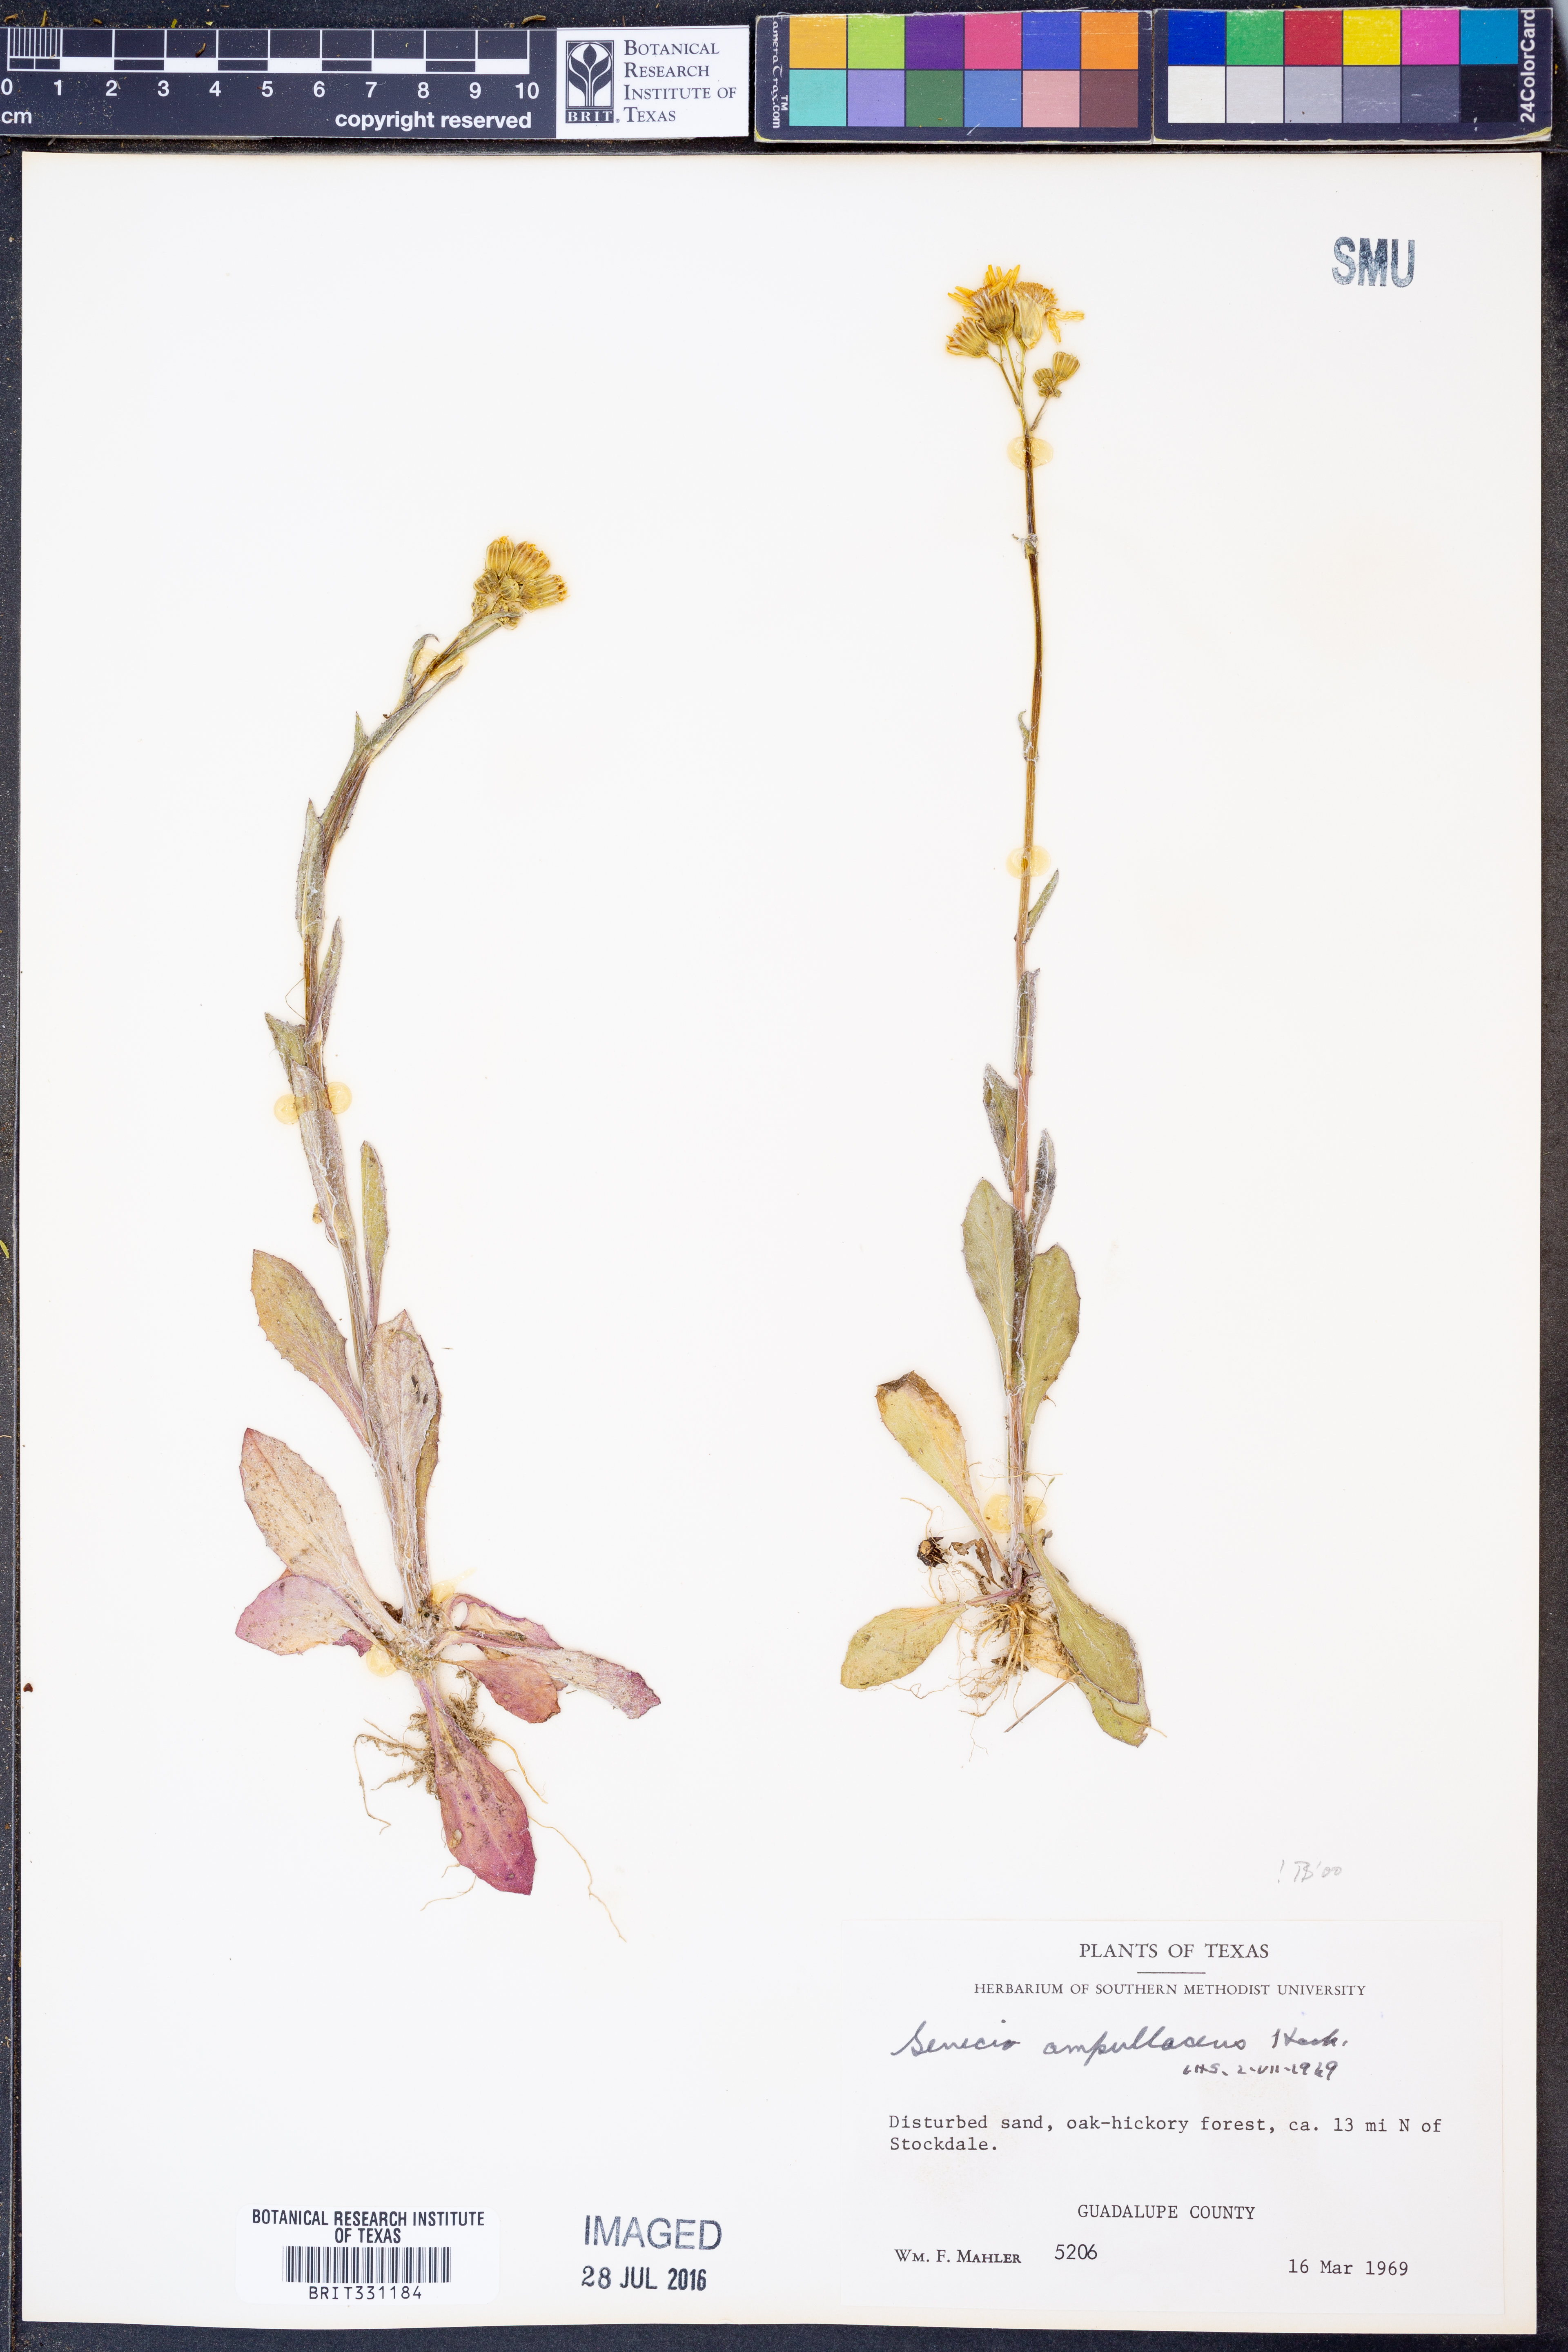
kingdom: Plantae
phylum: Tracheophyta
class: Magnoliopsida
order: Asterales
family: Asteraceae
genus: Senecio
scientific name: Senecio ampullaceus
